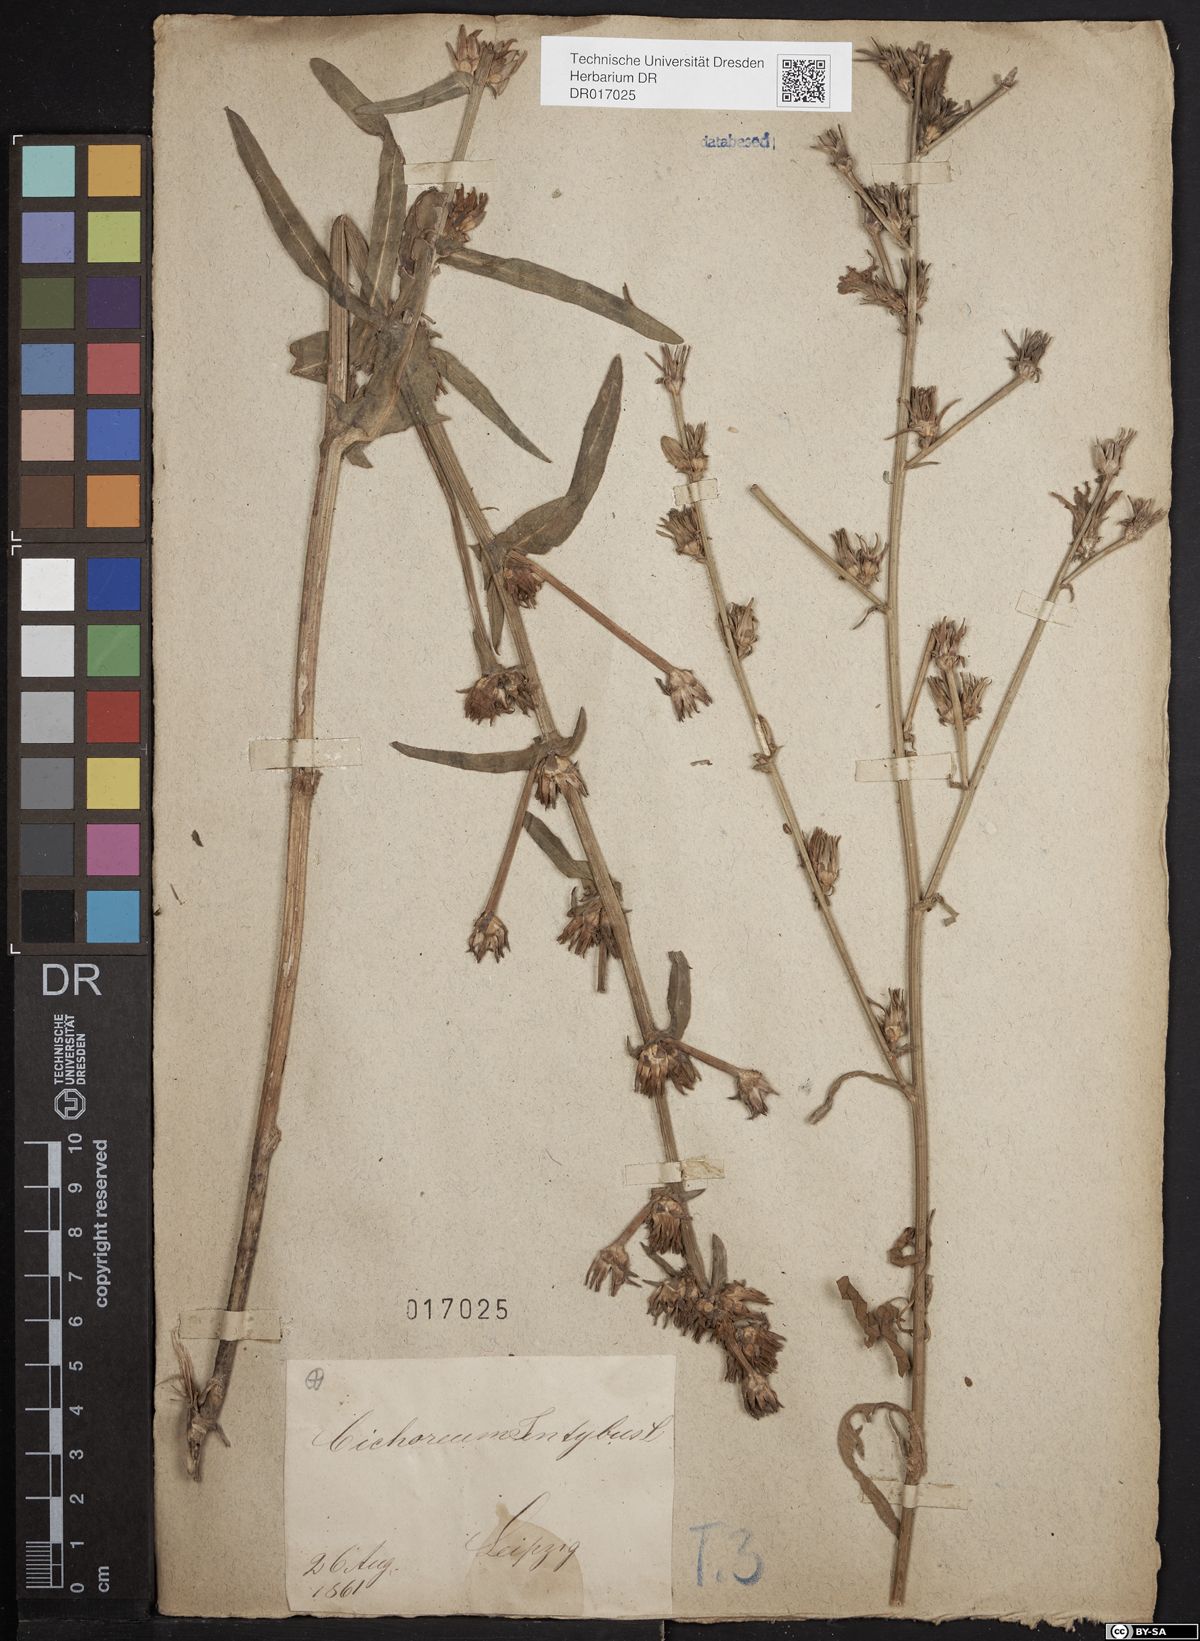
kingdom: Plantae
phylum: Tracheophyta
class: Magnoliopsida
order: Asterales
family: Asteraceae
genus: Cichorium
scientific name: Cichorium intybus
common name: Chicory
